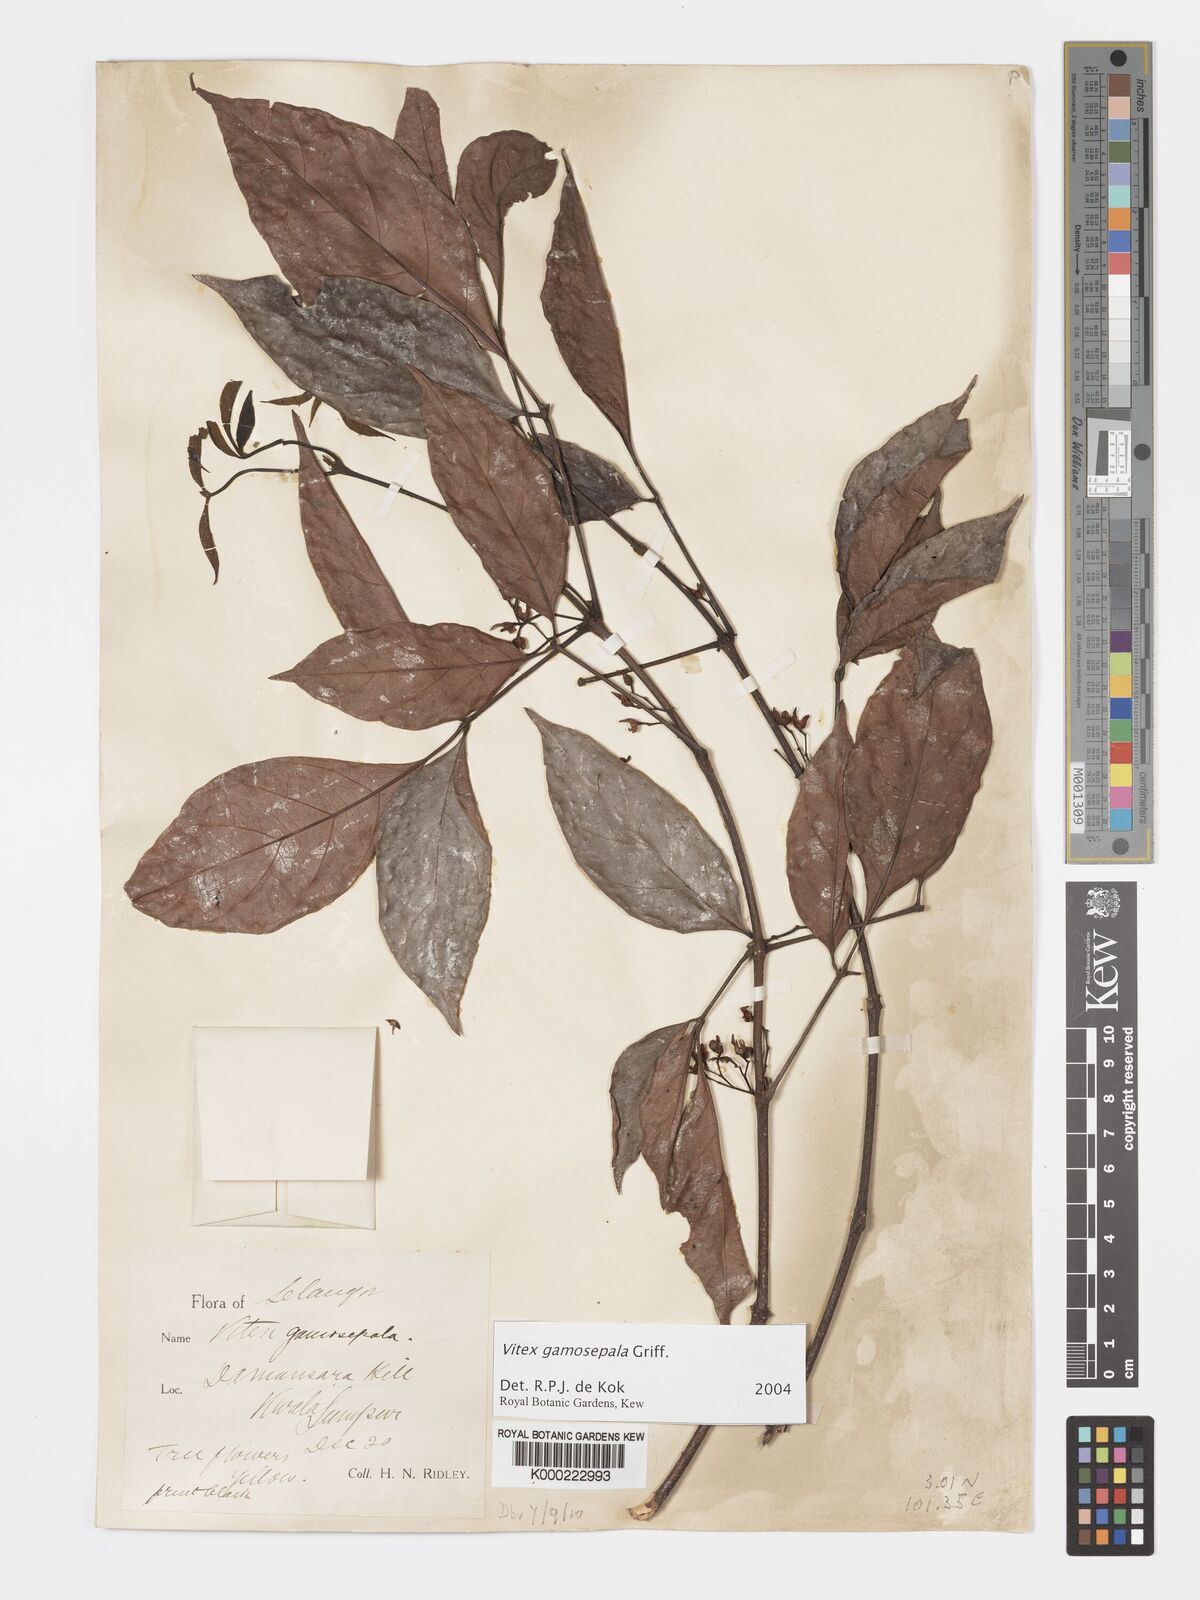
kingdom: Plantae
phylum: Tracheophyta
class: Magnoliopsida
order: Lamiales
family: Lamiaceae
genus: Vitex
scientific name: Vitex gamosepala
